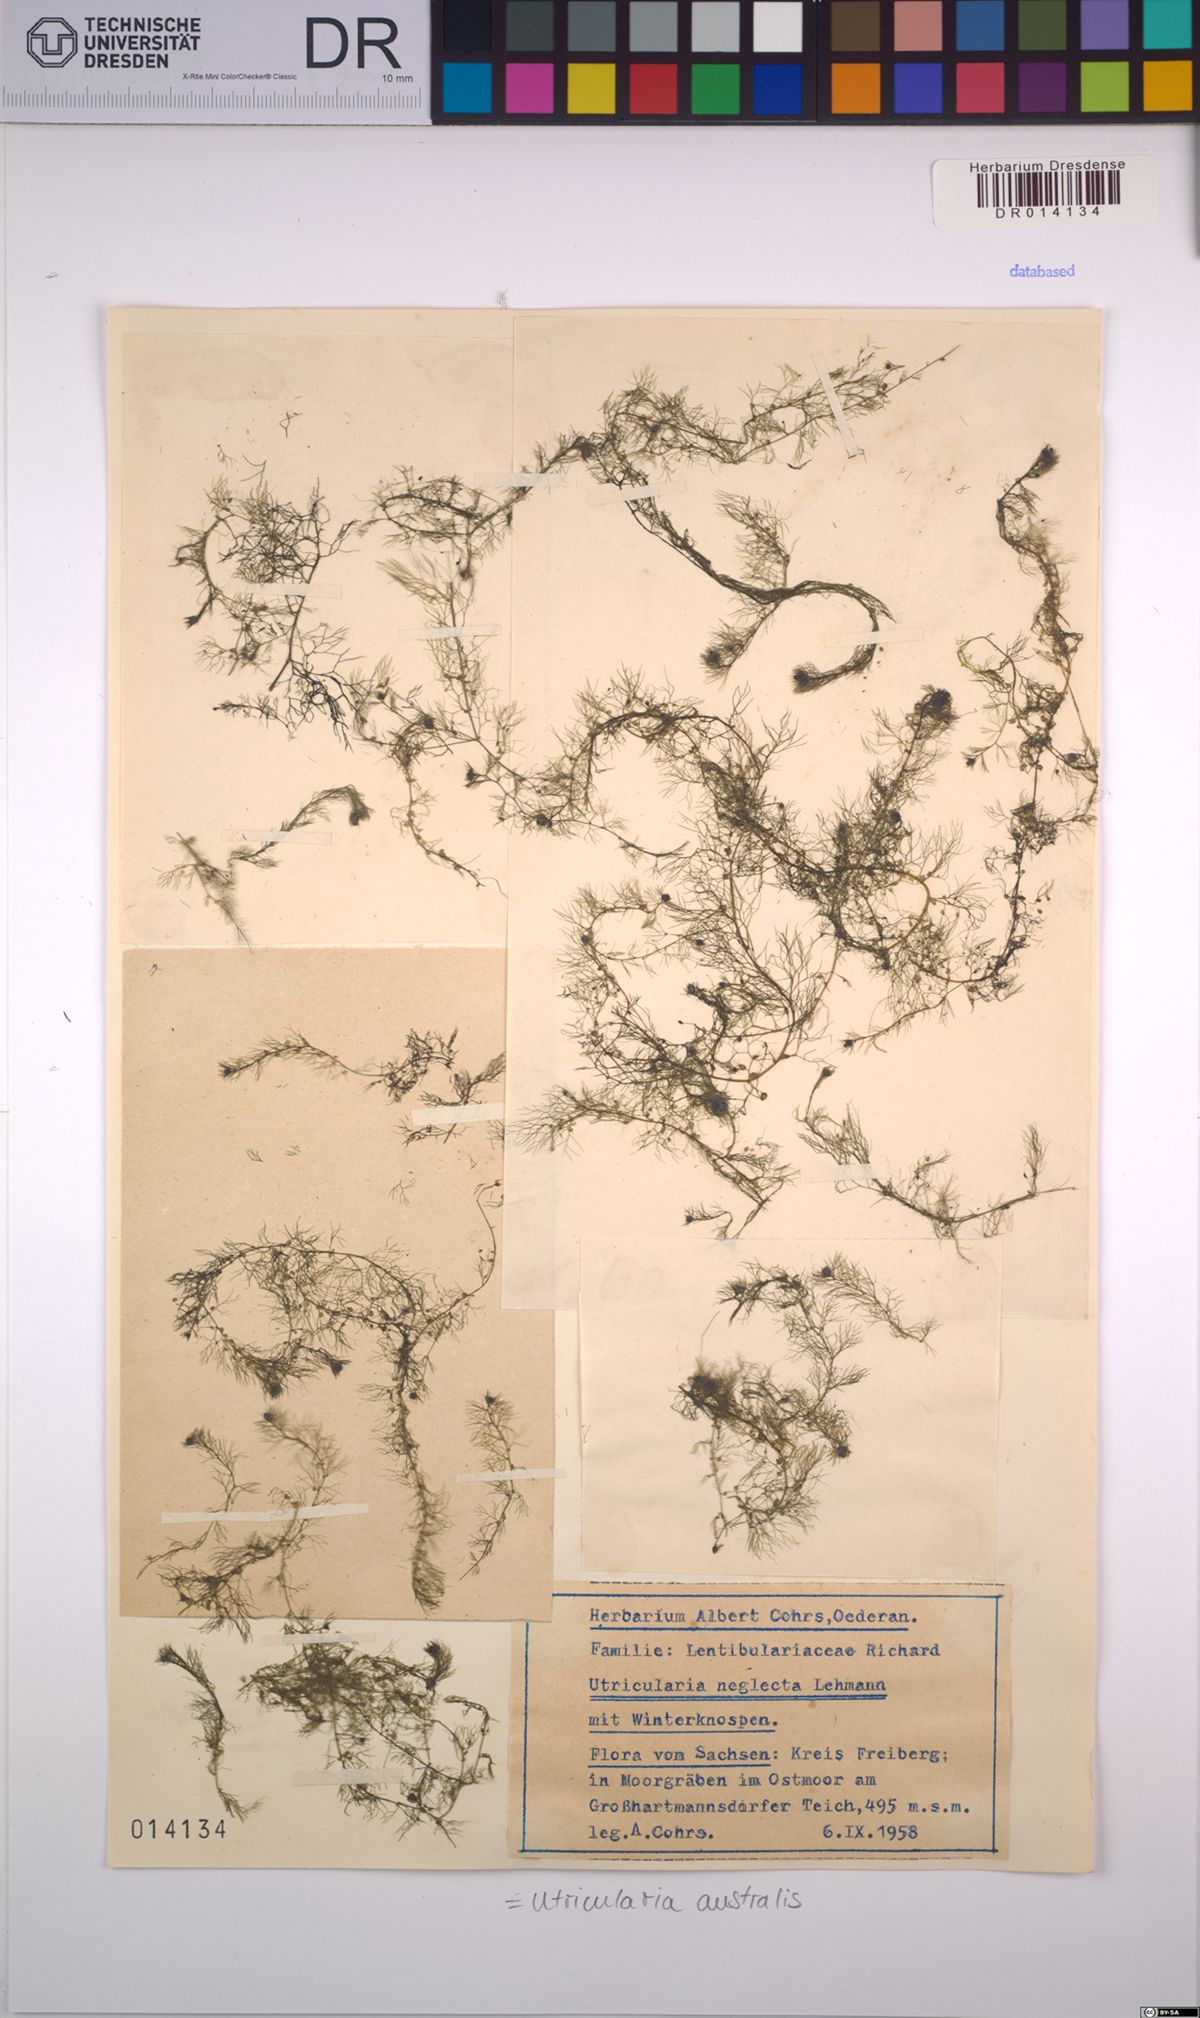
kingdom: Plantae
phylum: Tracheophyta
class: Magnoliopsida
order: Lamiales
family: Lentibulariaceae
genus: Utricularia
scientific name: Utricularia australis
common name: Bladderwort
